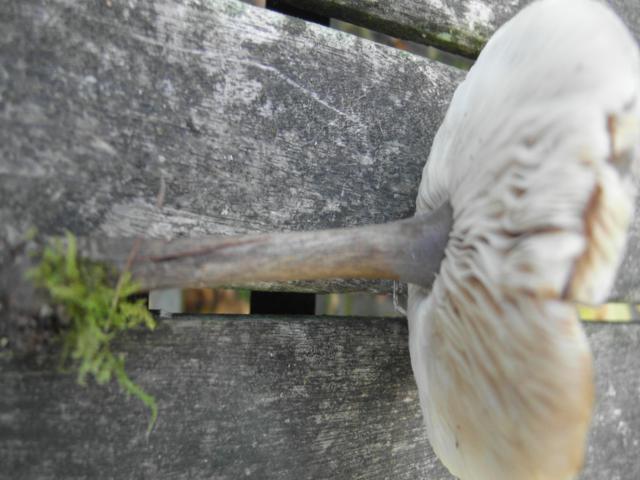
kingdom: Fungi
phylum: Basidiomycota
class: Agaricomycetes
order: Agaricales
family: Tricholomataceae
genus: Melanoleuca
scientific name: Melanoleuca polioleuca
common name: almindelig munkehat
